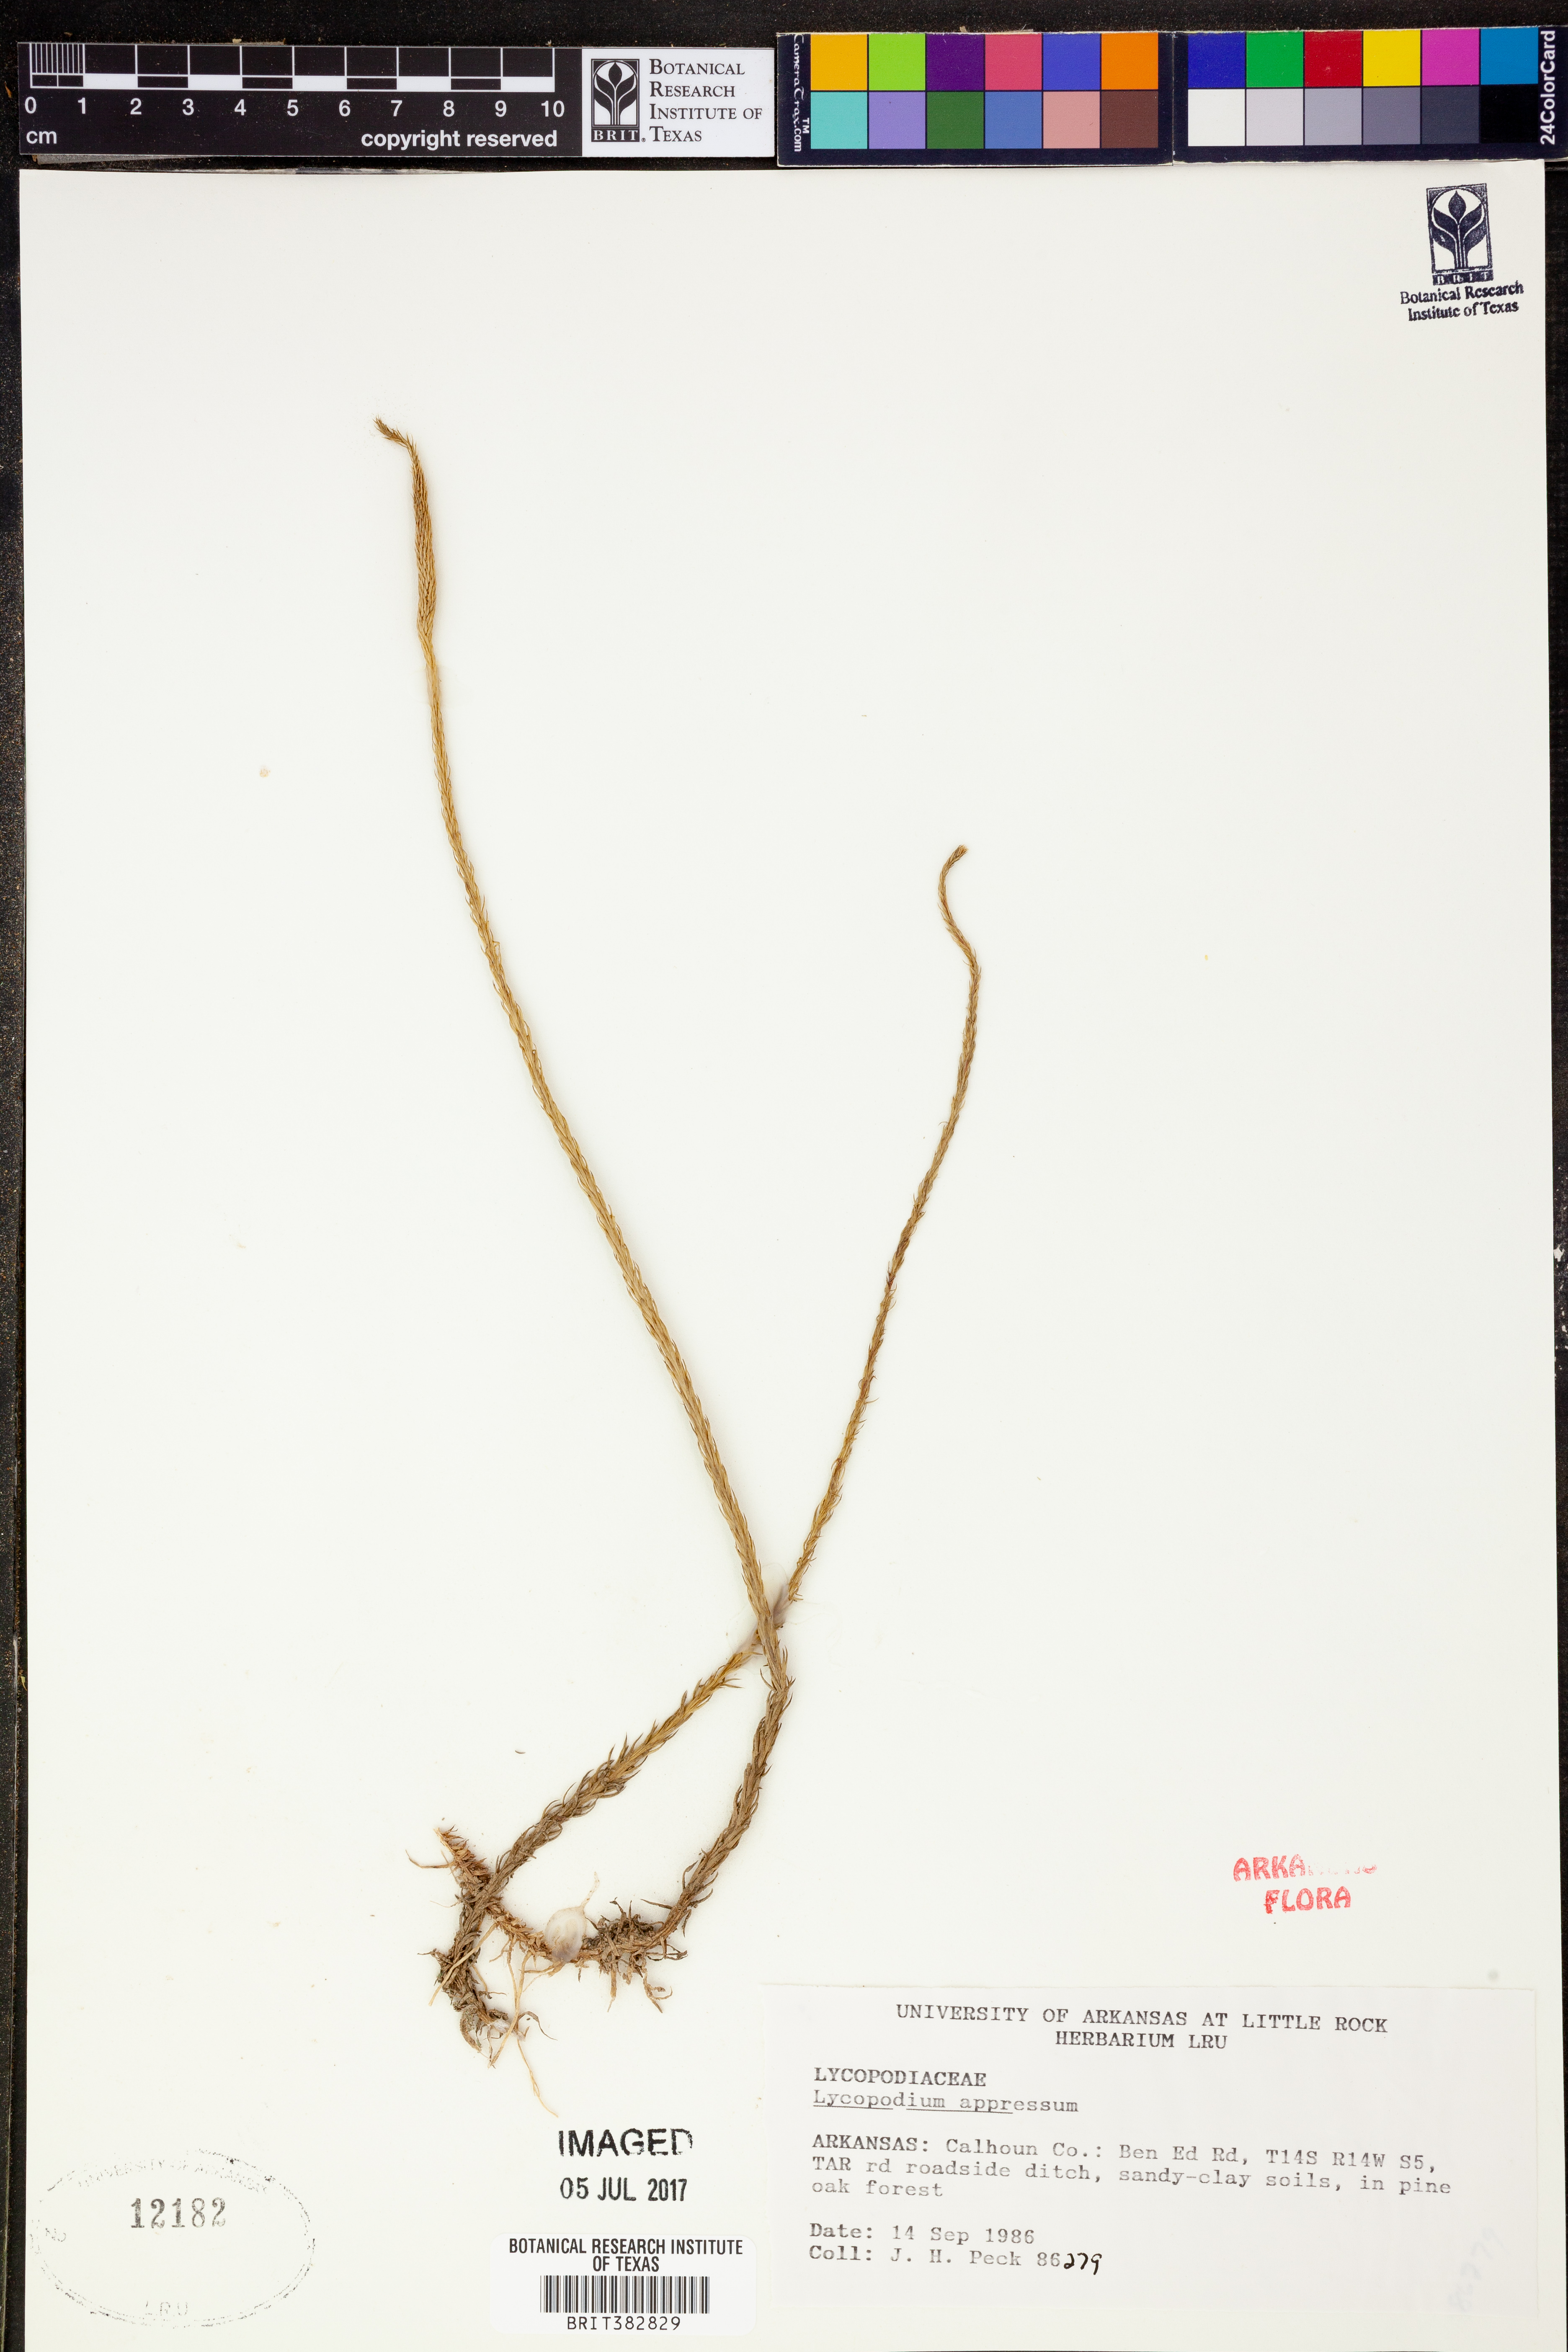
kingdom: Plantae
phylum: Tracheophyta
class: Lycopodiopsida
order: Lycopodiales
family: Lycopodiaceae
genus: Lycopodiella
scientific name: Lycopodiella appressa
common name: Appressed bog clubmoss
